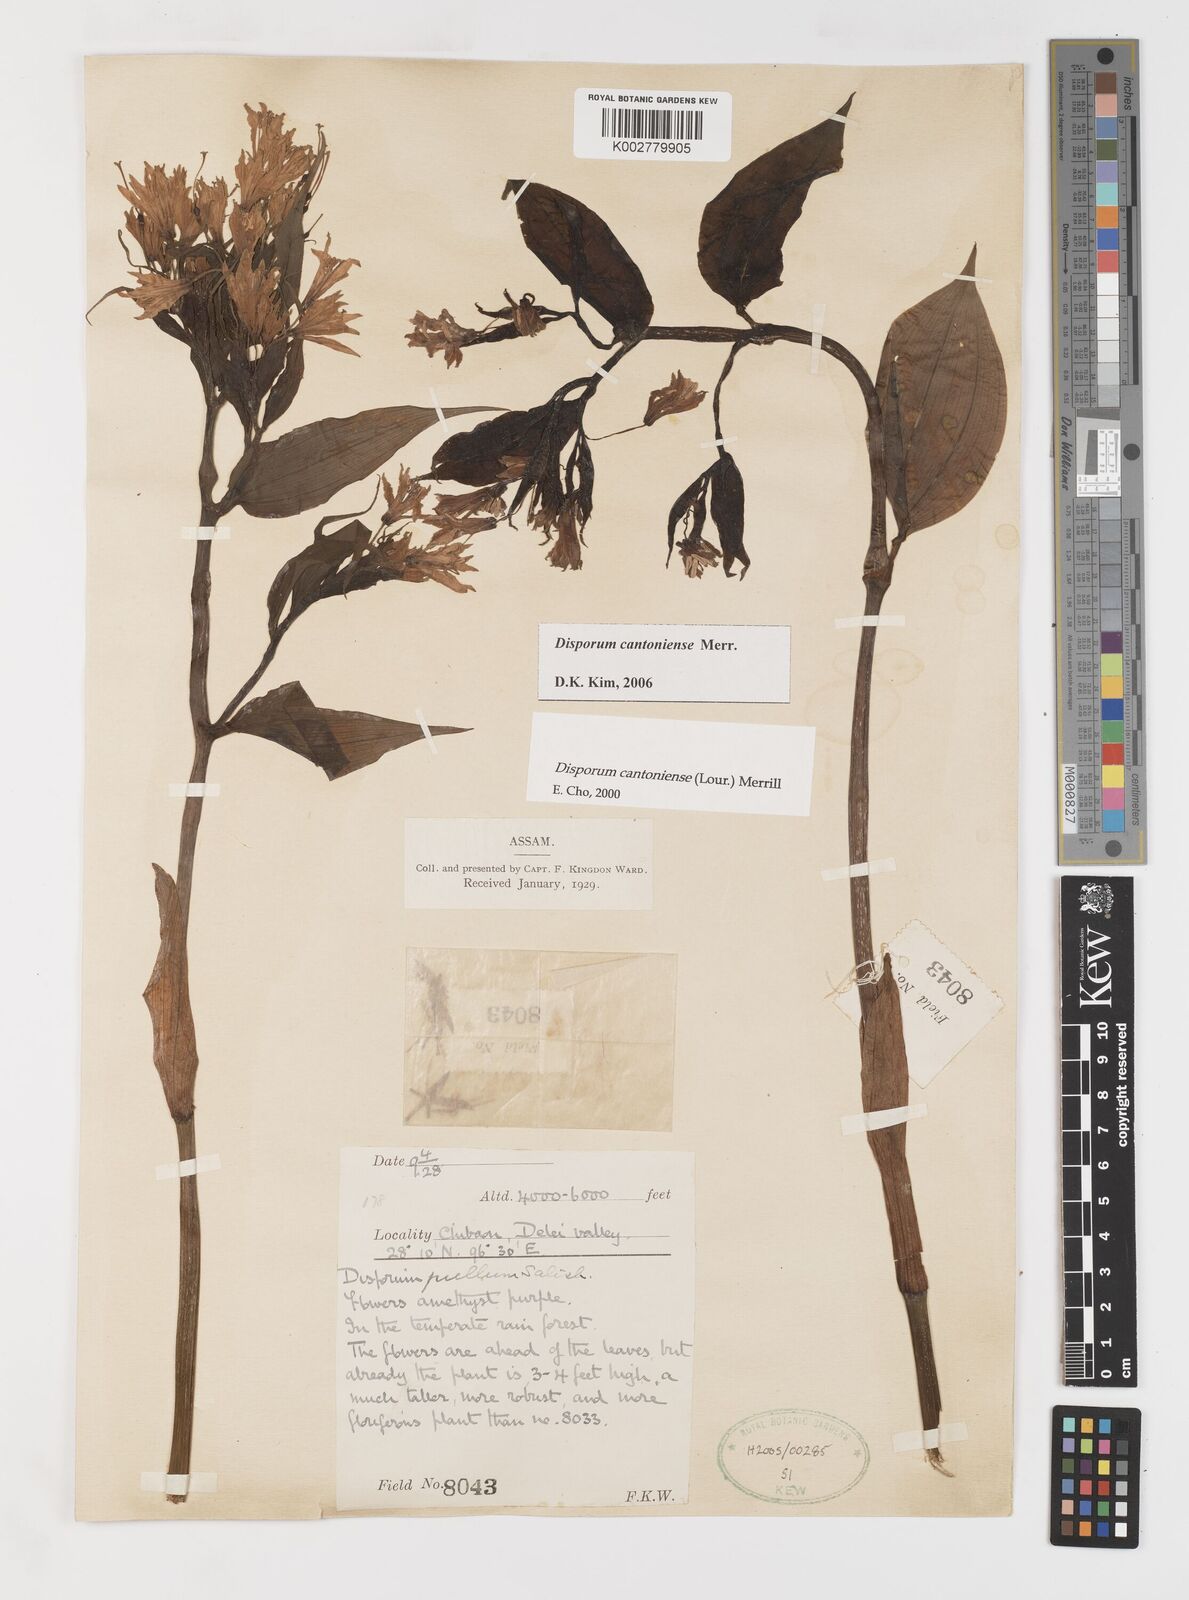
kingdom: Plantae
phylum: Tracheophyta
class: Liliopsida
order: Liliales
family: Colchicaceae
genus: Disporum
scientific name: Disporum cantoniense
